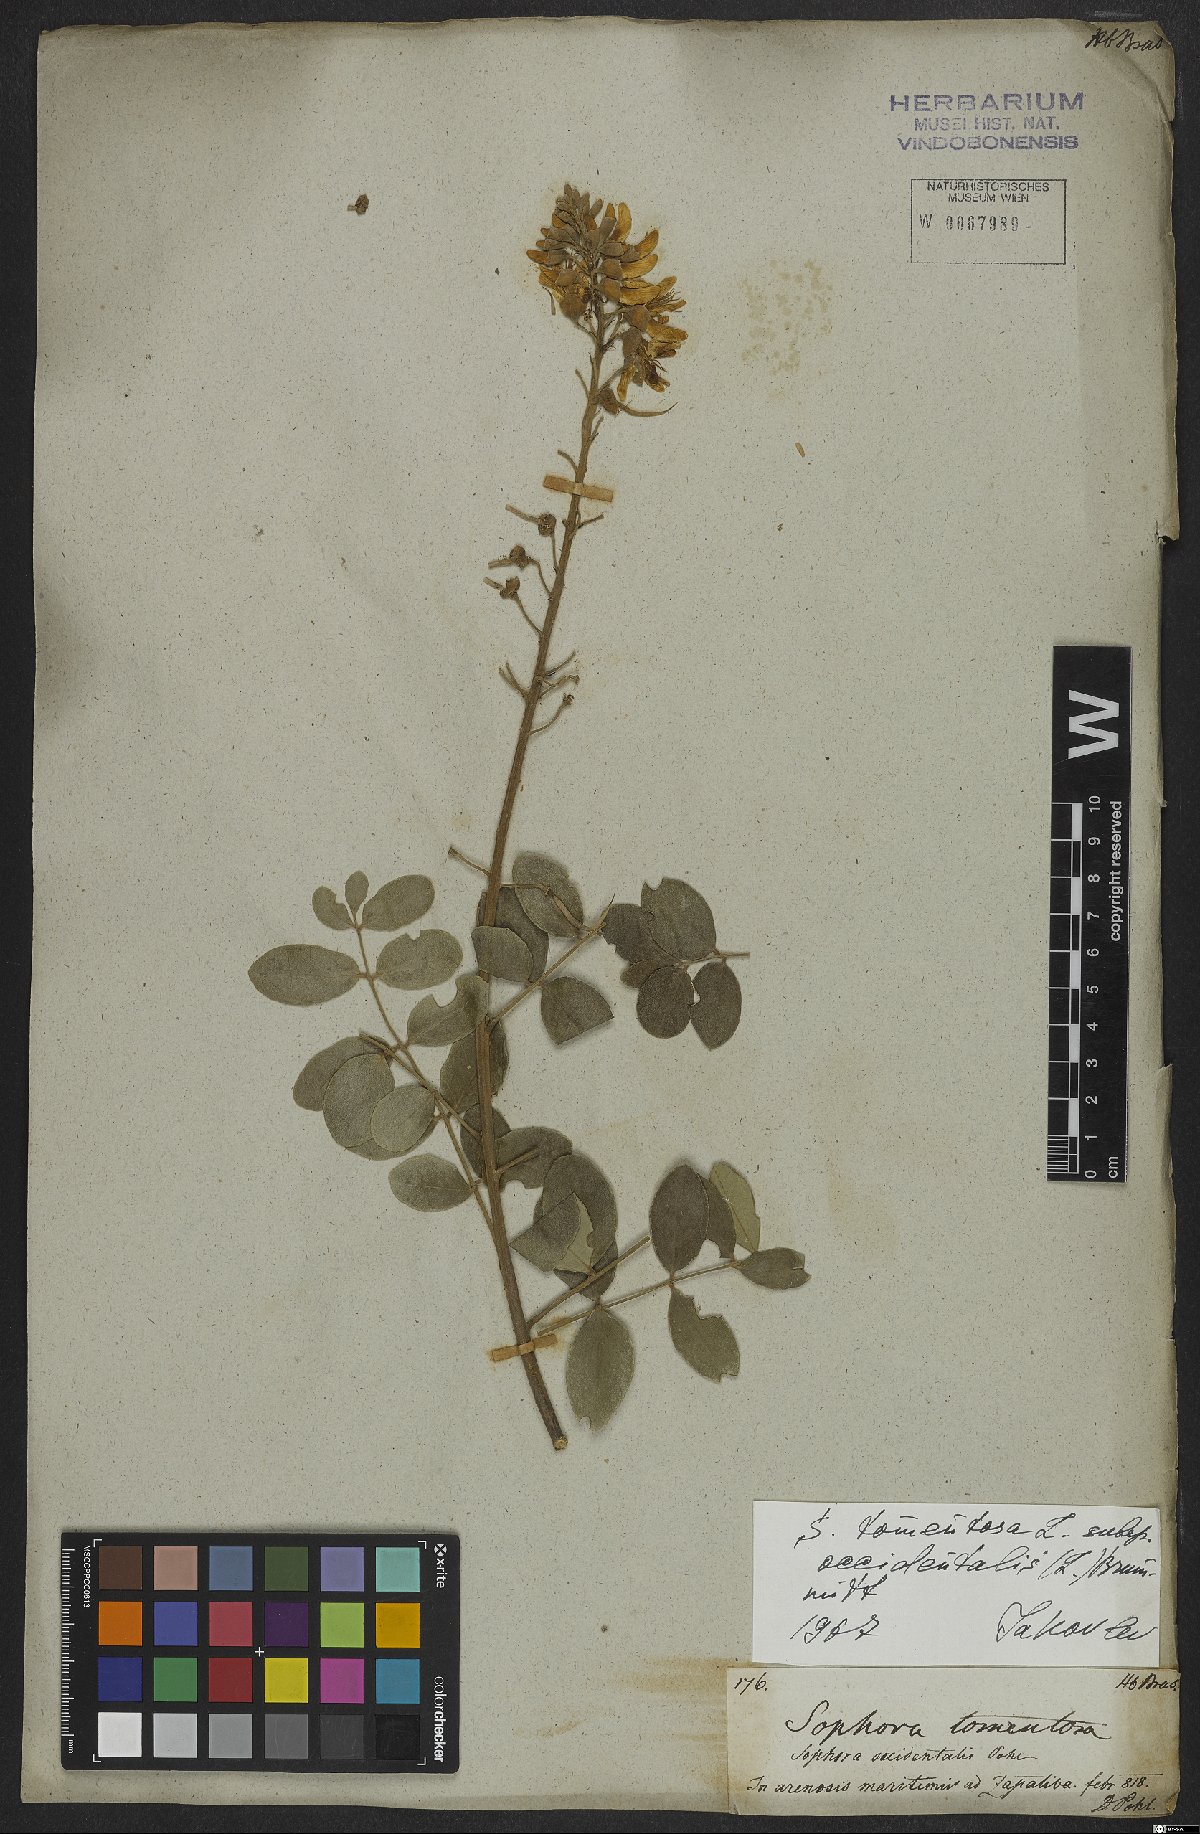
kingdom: Plantae
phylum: Tracheophyta
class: Magnoliopsida
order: Fabales
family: Fabaceae
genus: Sophora
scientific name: Sophora tomentosa
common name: Yellow necklacepod
